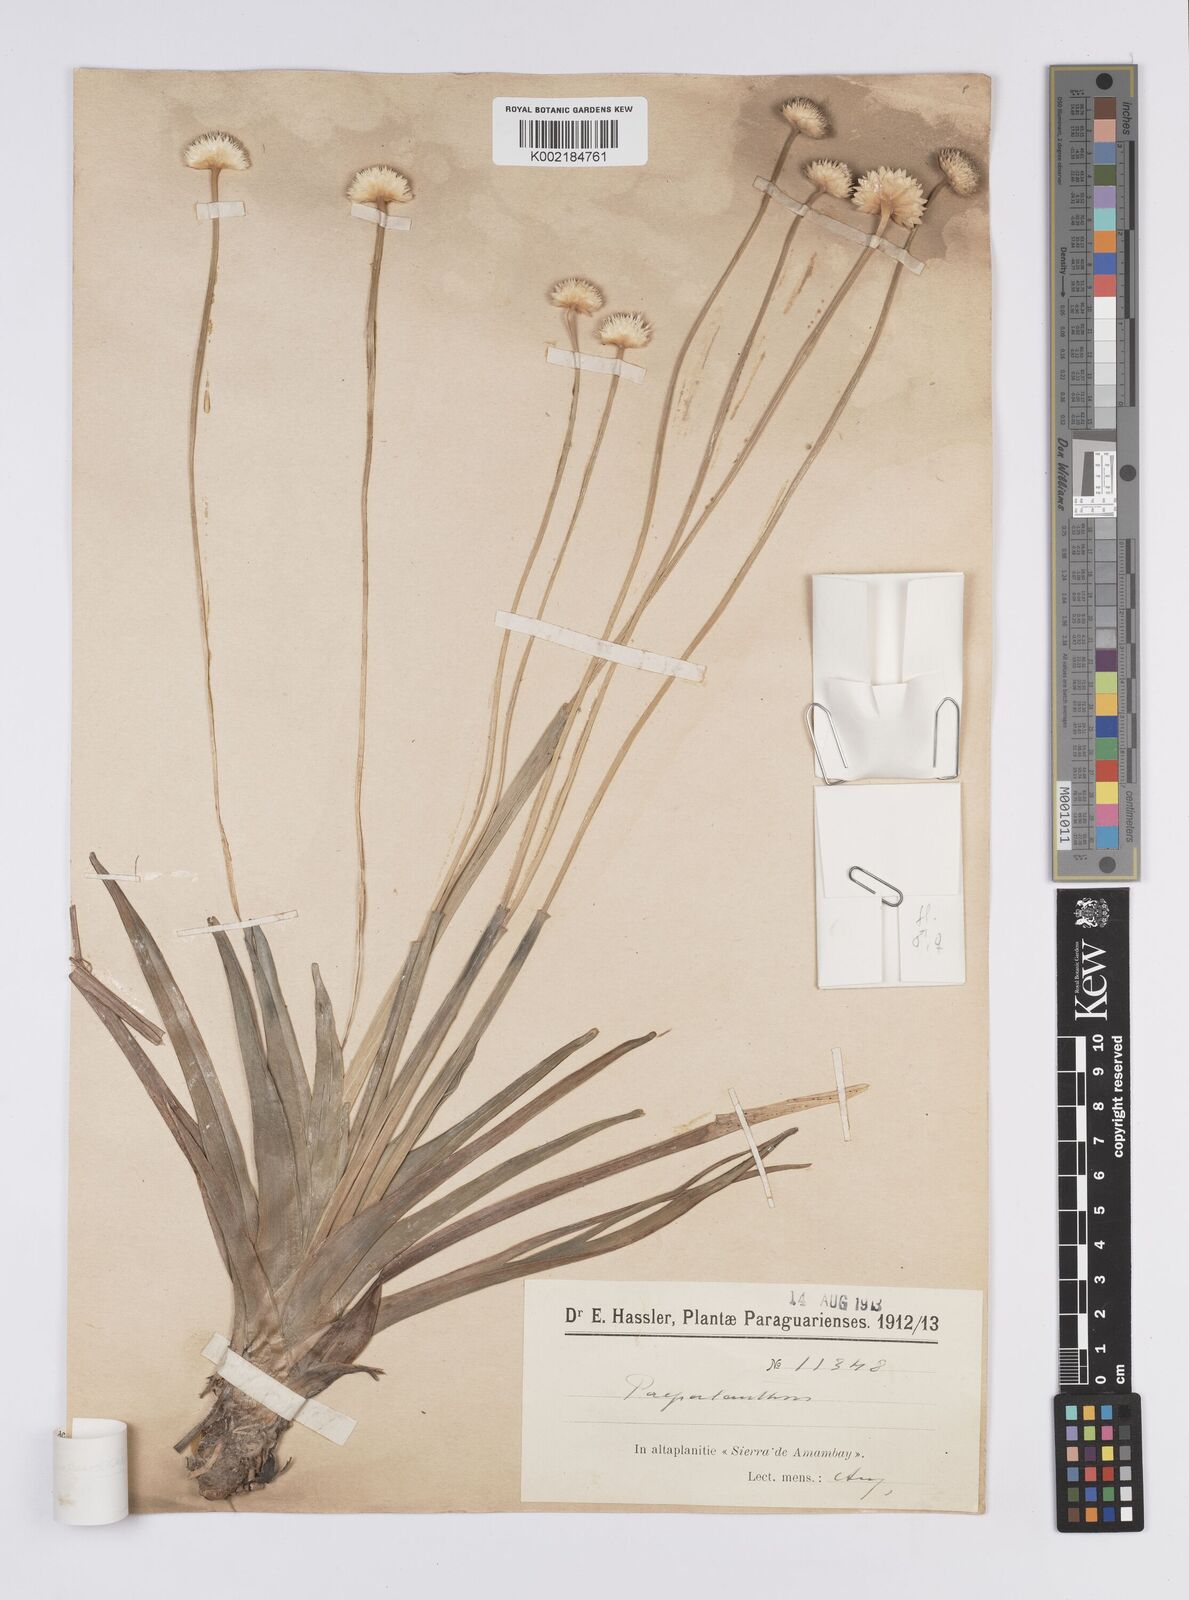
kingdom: Plantae
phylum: Tracheophyta
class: Liliopsida
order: Poales
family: Eriocaulaceae
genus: Eriocaulon
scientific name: Eriocaulon elichrysoides
